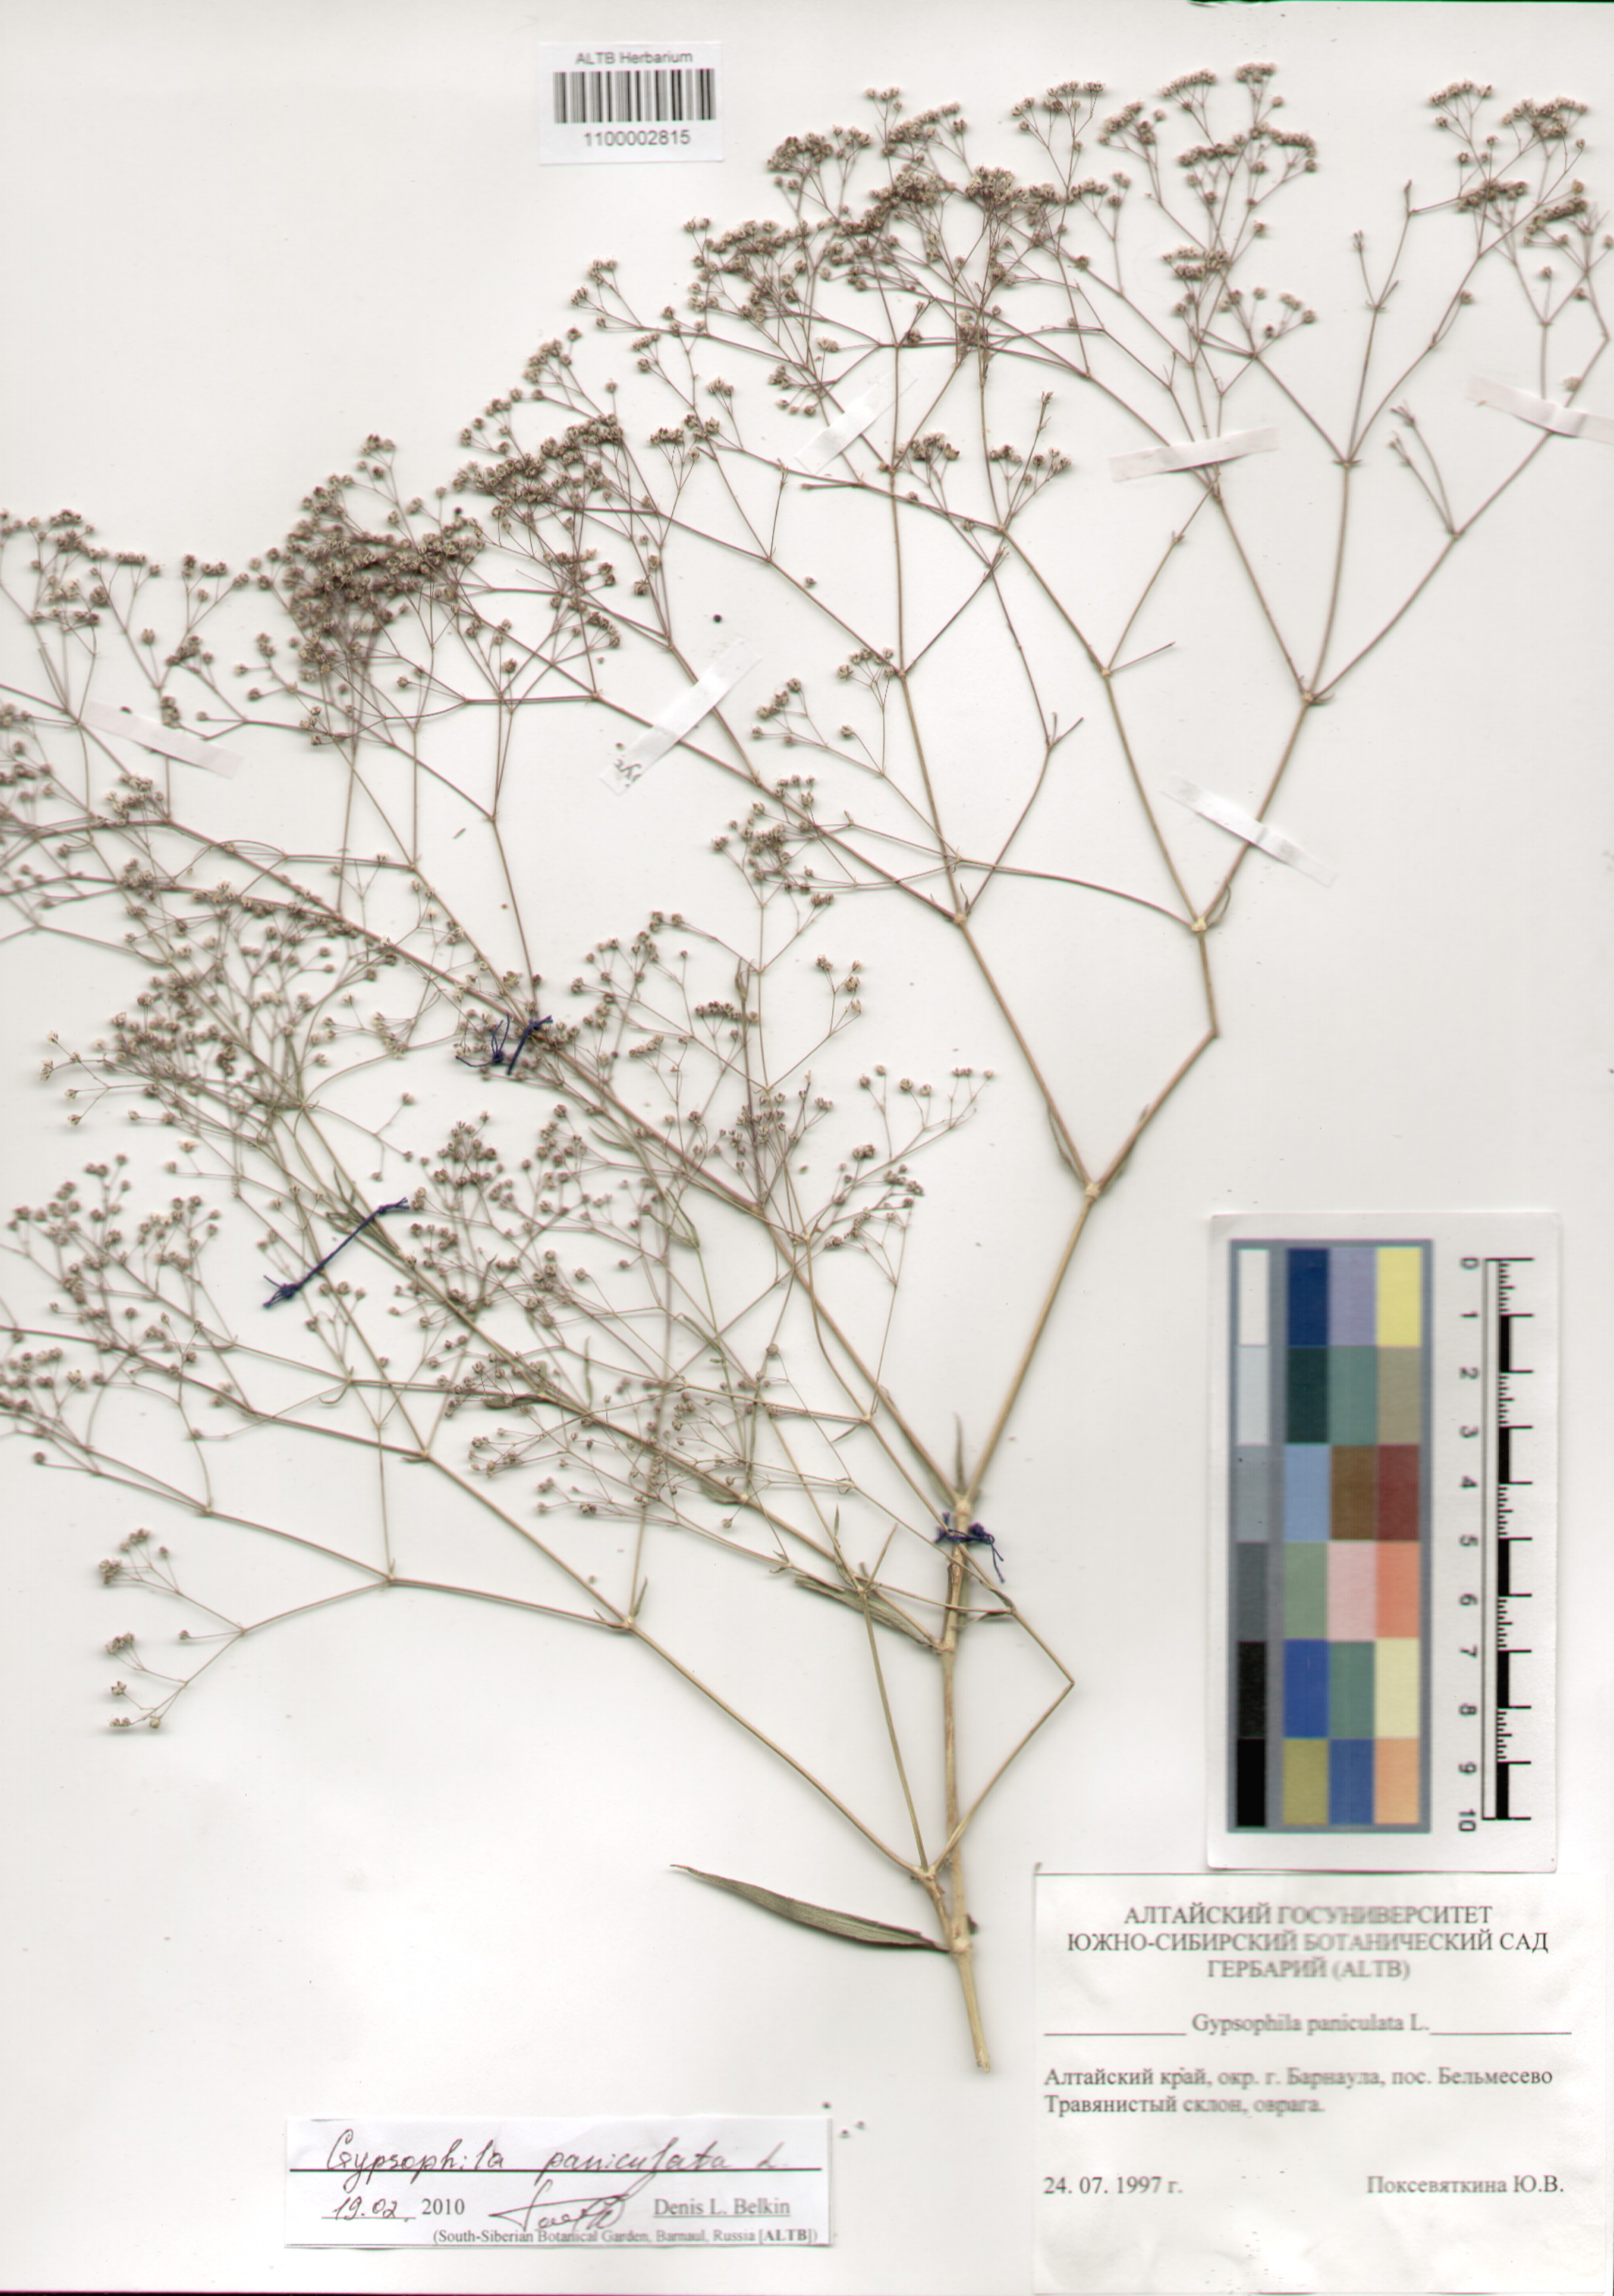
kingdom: Plantae
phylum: Tracheophyta
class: Magnoliopsida
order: Caryophyllales
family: Caryophyllaceae
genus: Gypsophila
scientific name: Gypsophila paniculata
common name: Baby's-breath
